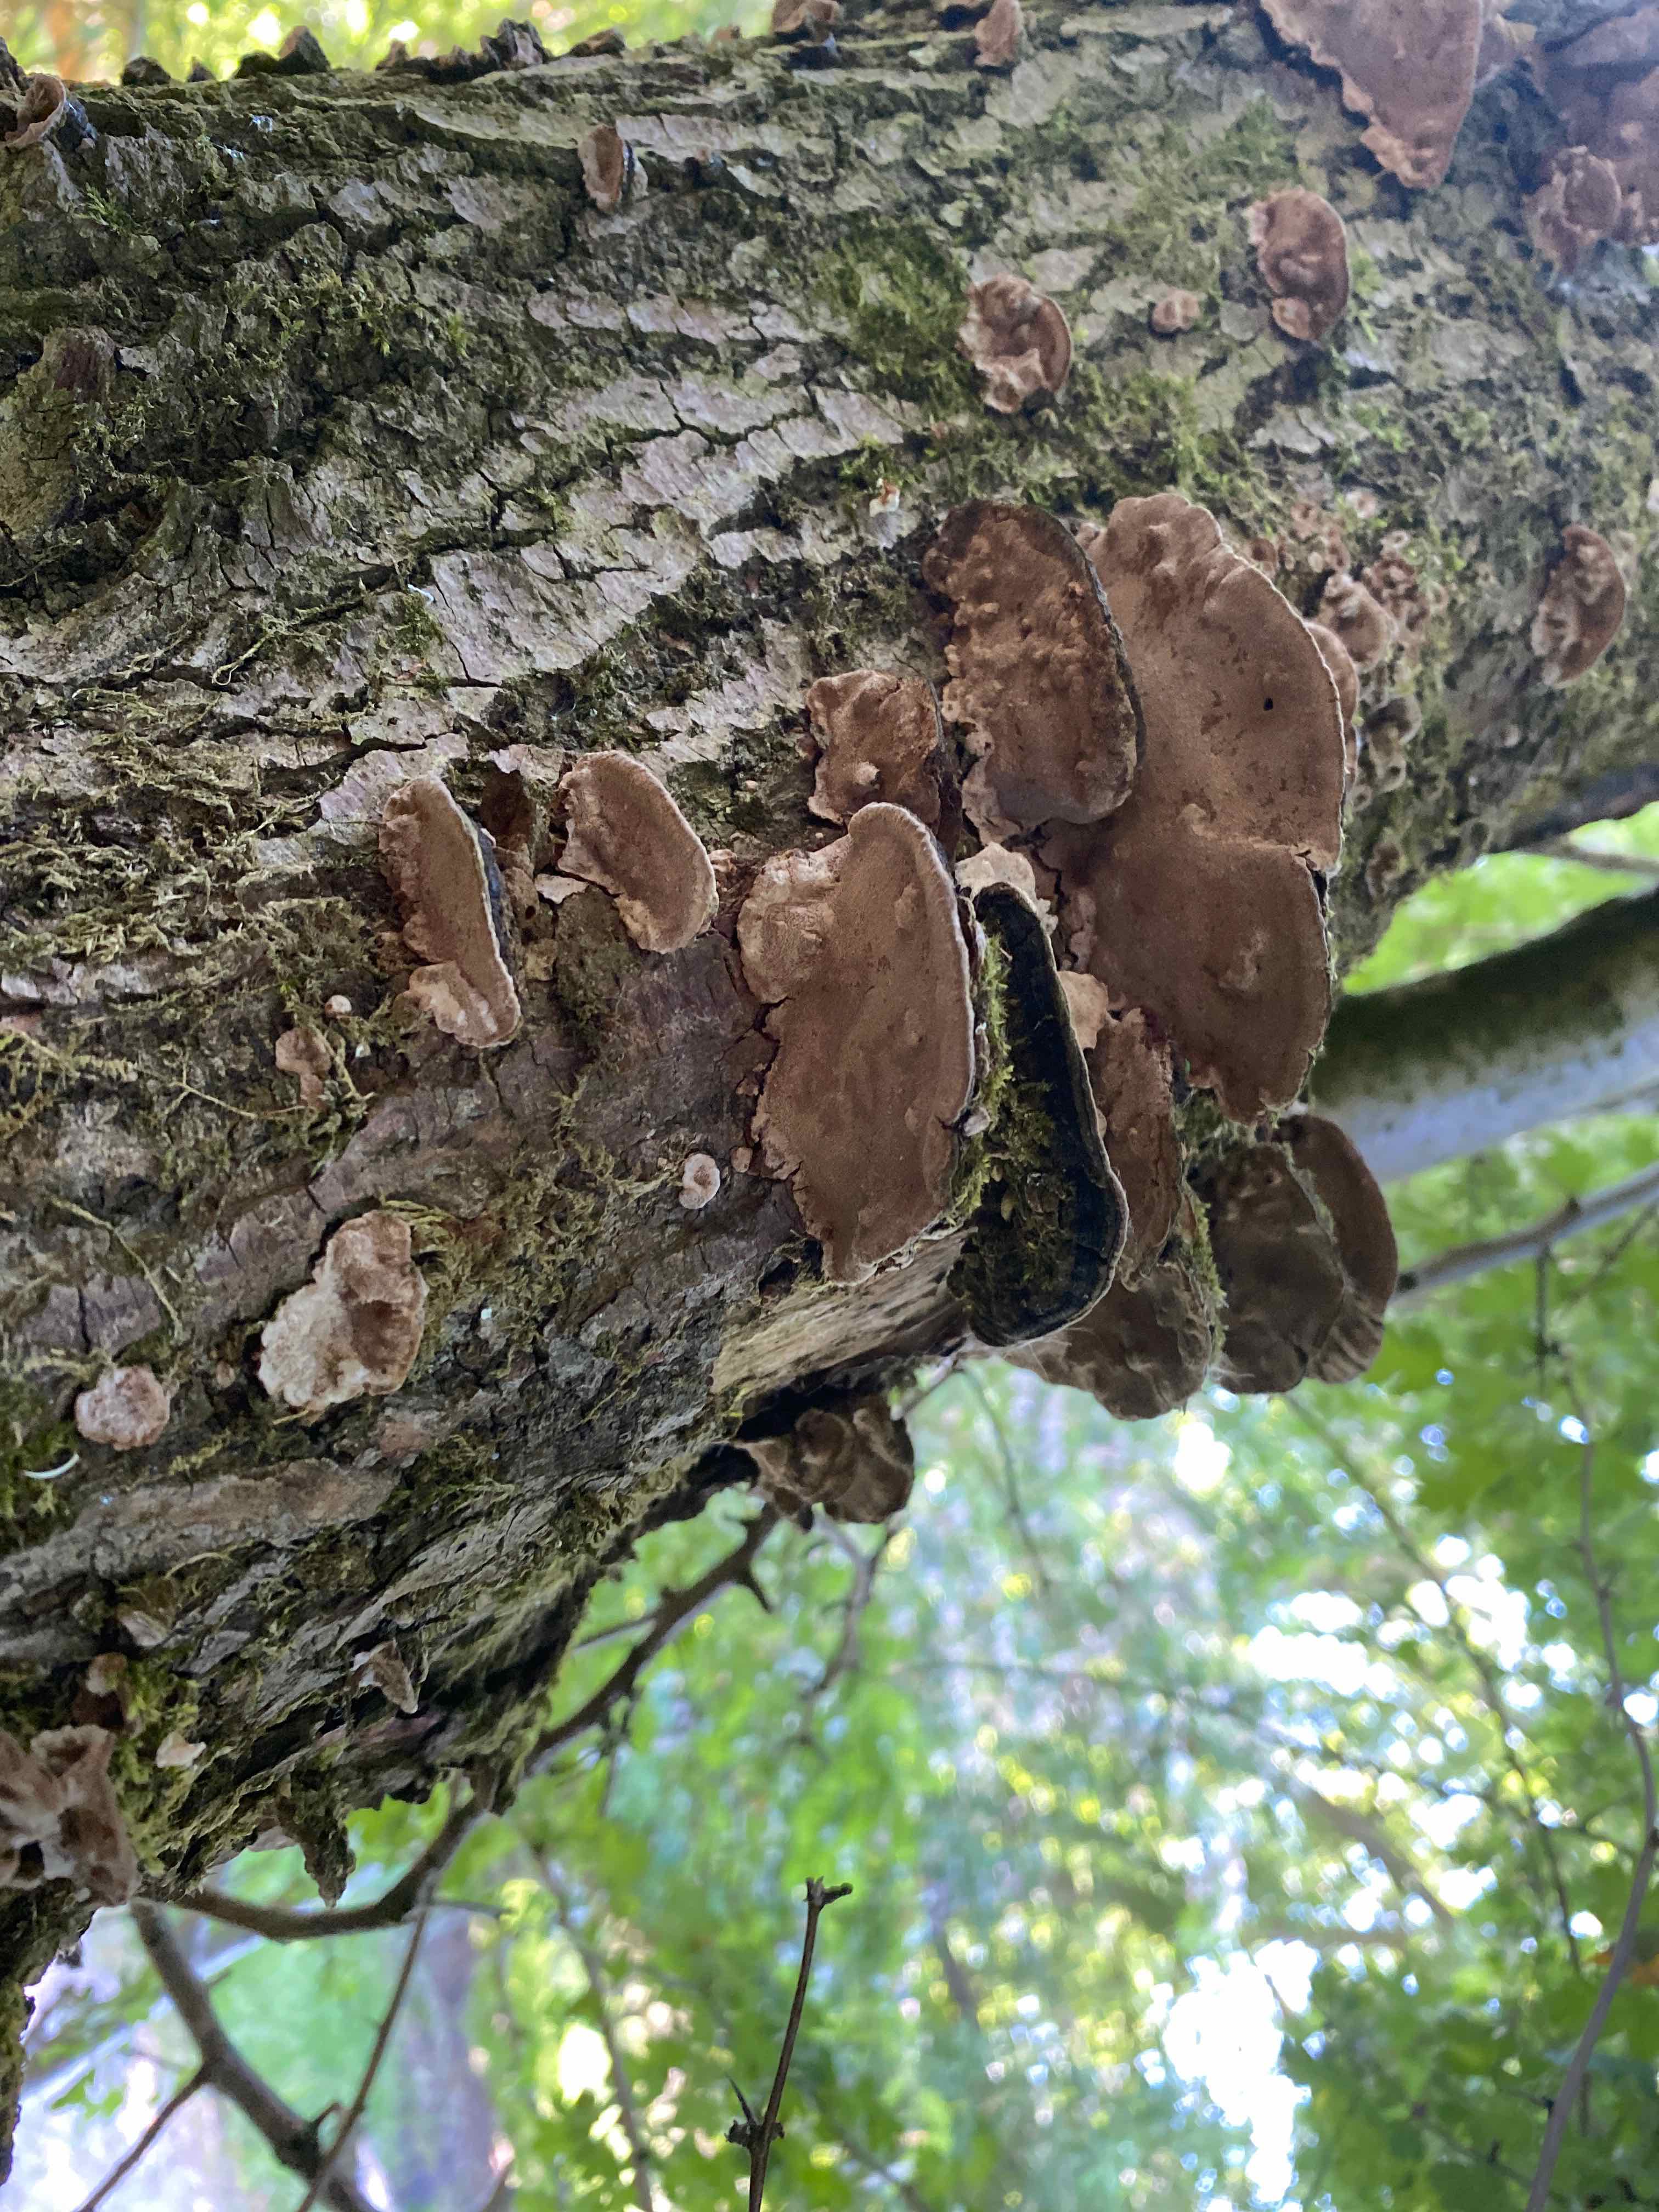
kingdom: Fungi
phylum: Basidiomycota
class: Agaricomycetes
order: Hymenochaetales
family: Hymenochaetaceae
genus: Phellinopsis
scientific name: Phellinopsis conchata
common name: pile-ildporesvamp
